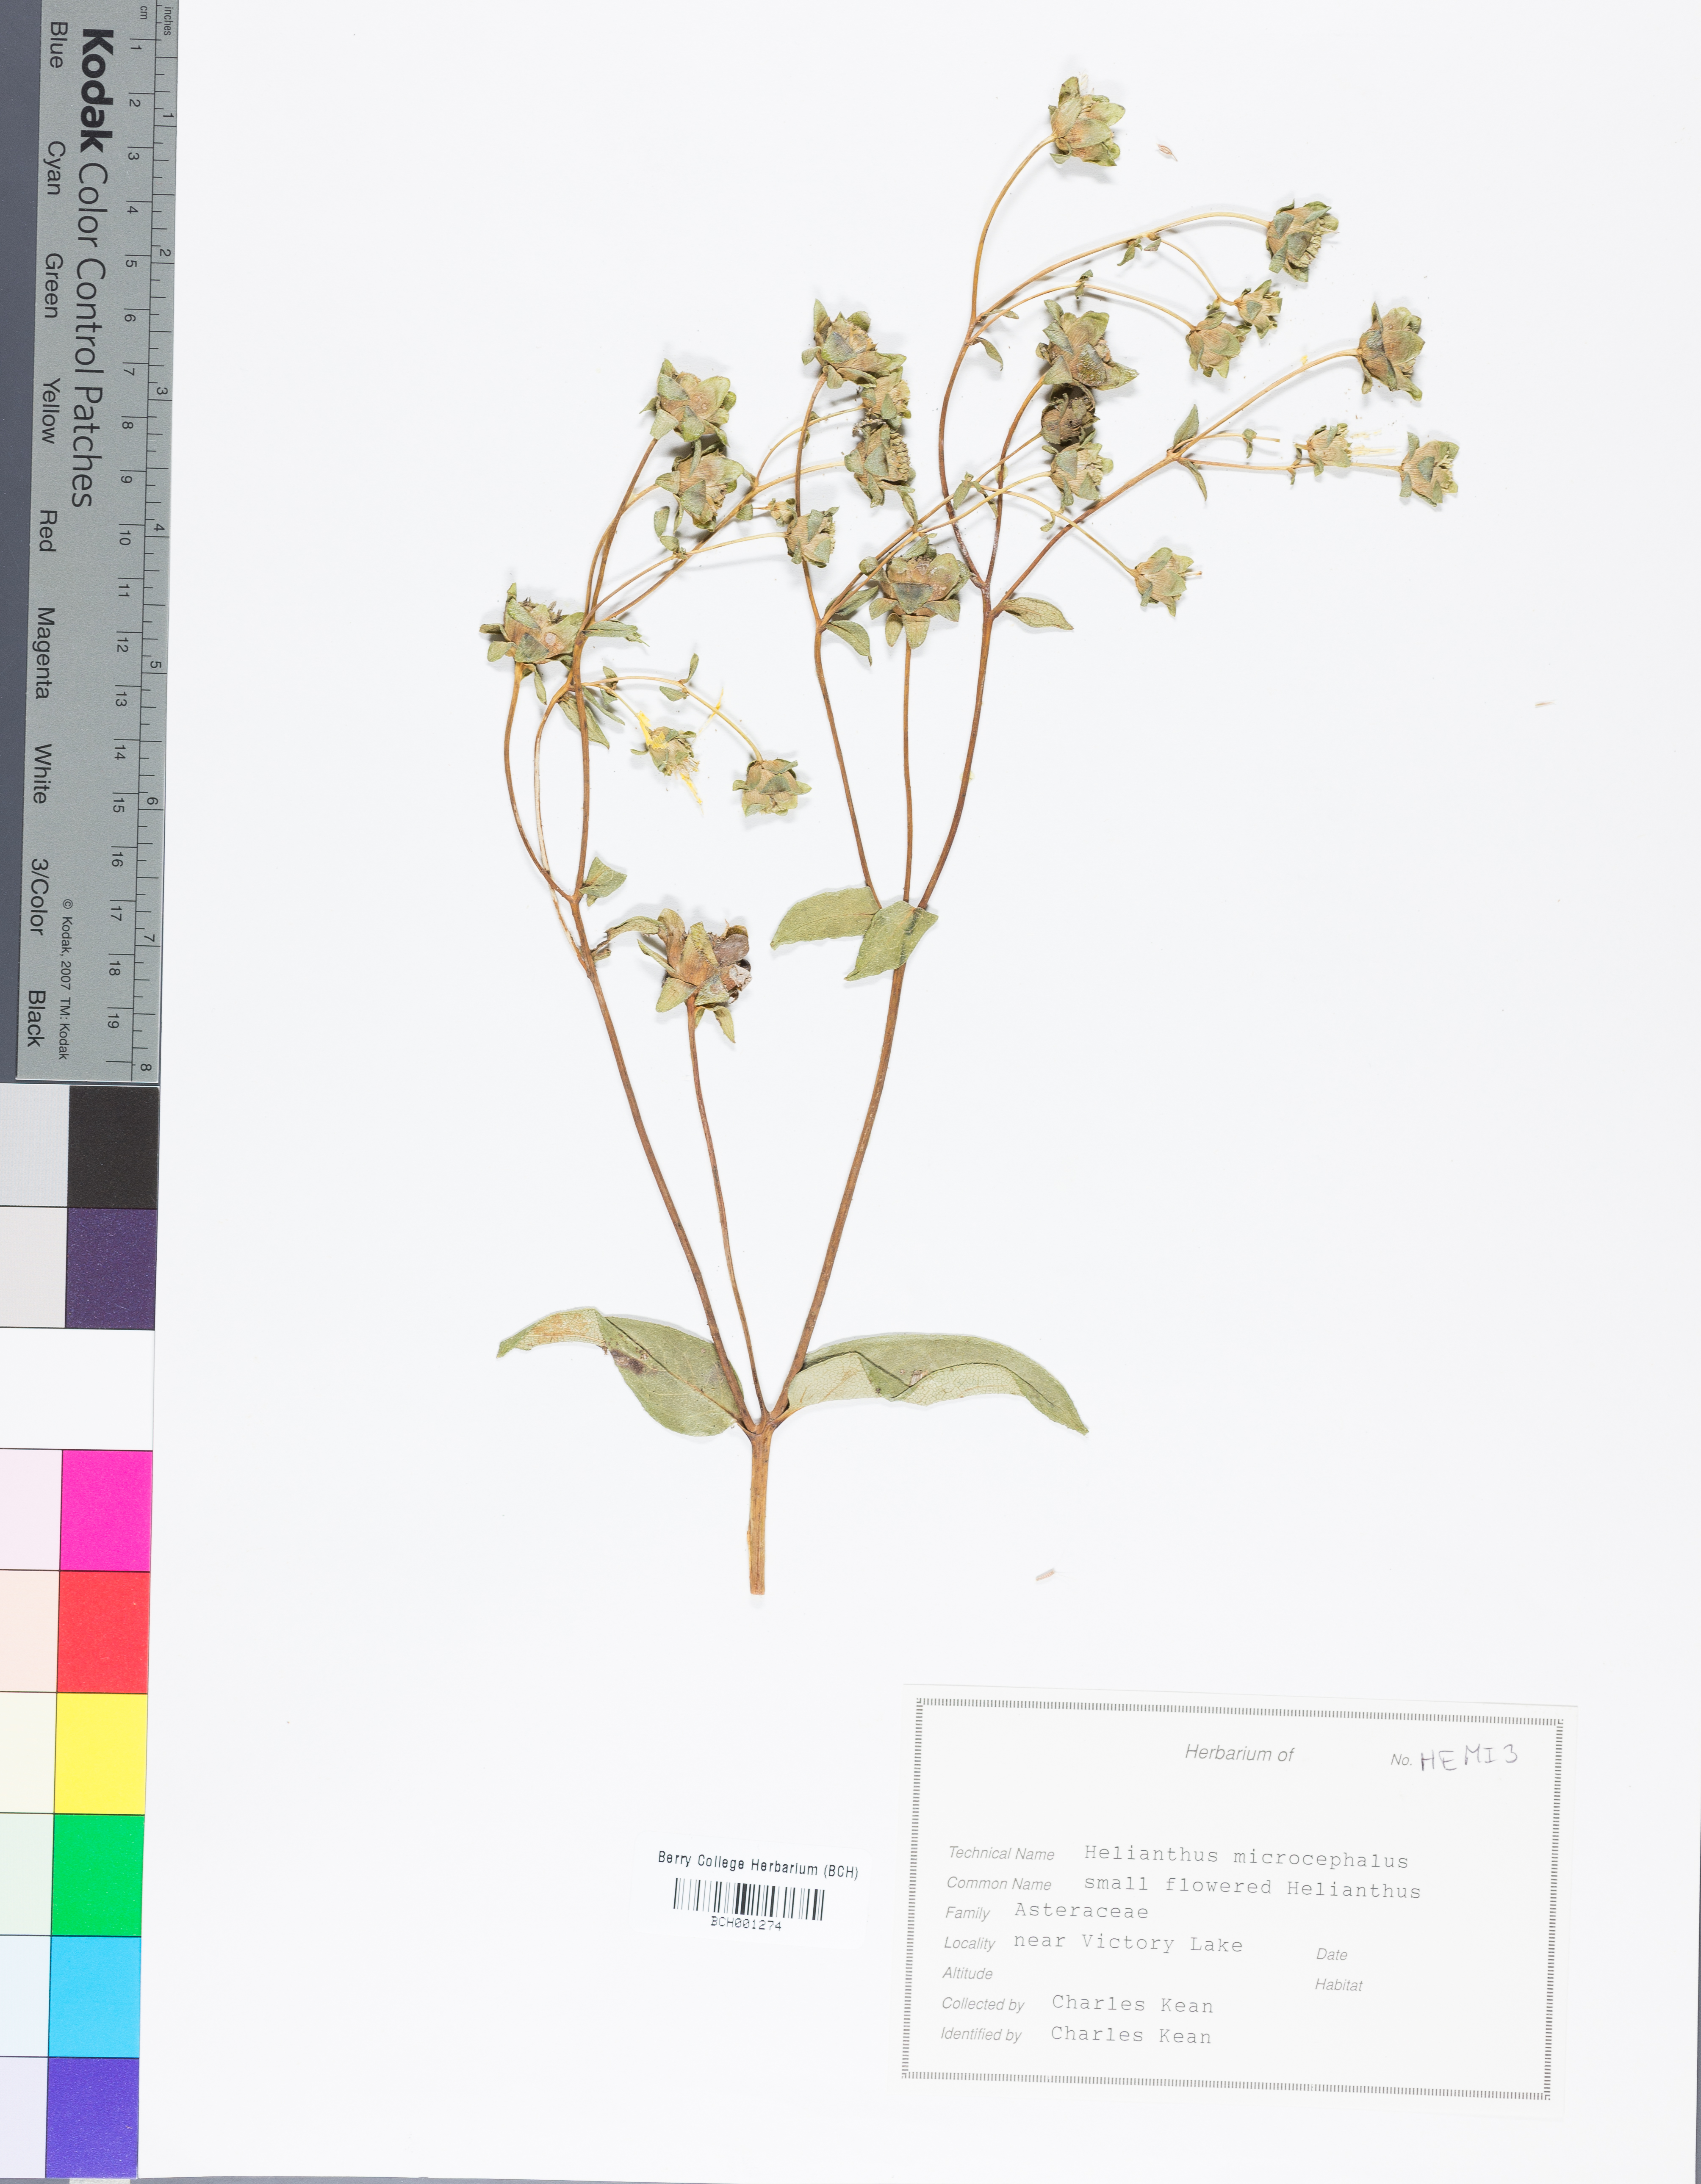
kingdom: Plantae
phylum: Tracheophyta
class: Magnoliopsida
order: Asterales
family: Asteraceae
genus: Helianthus
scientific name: Helianthus microcephalus
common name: Woodland sunflower
